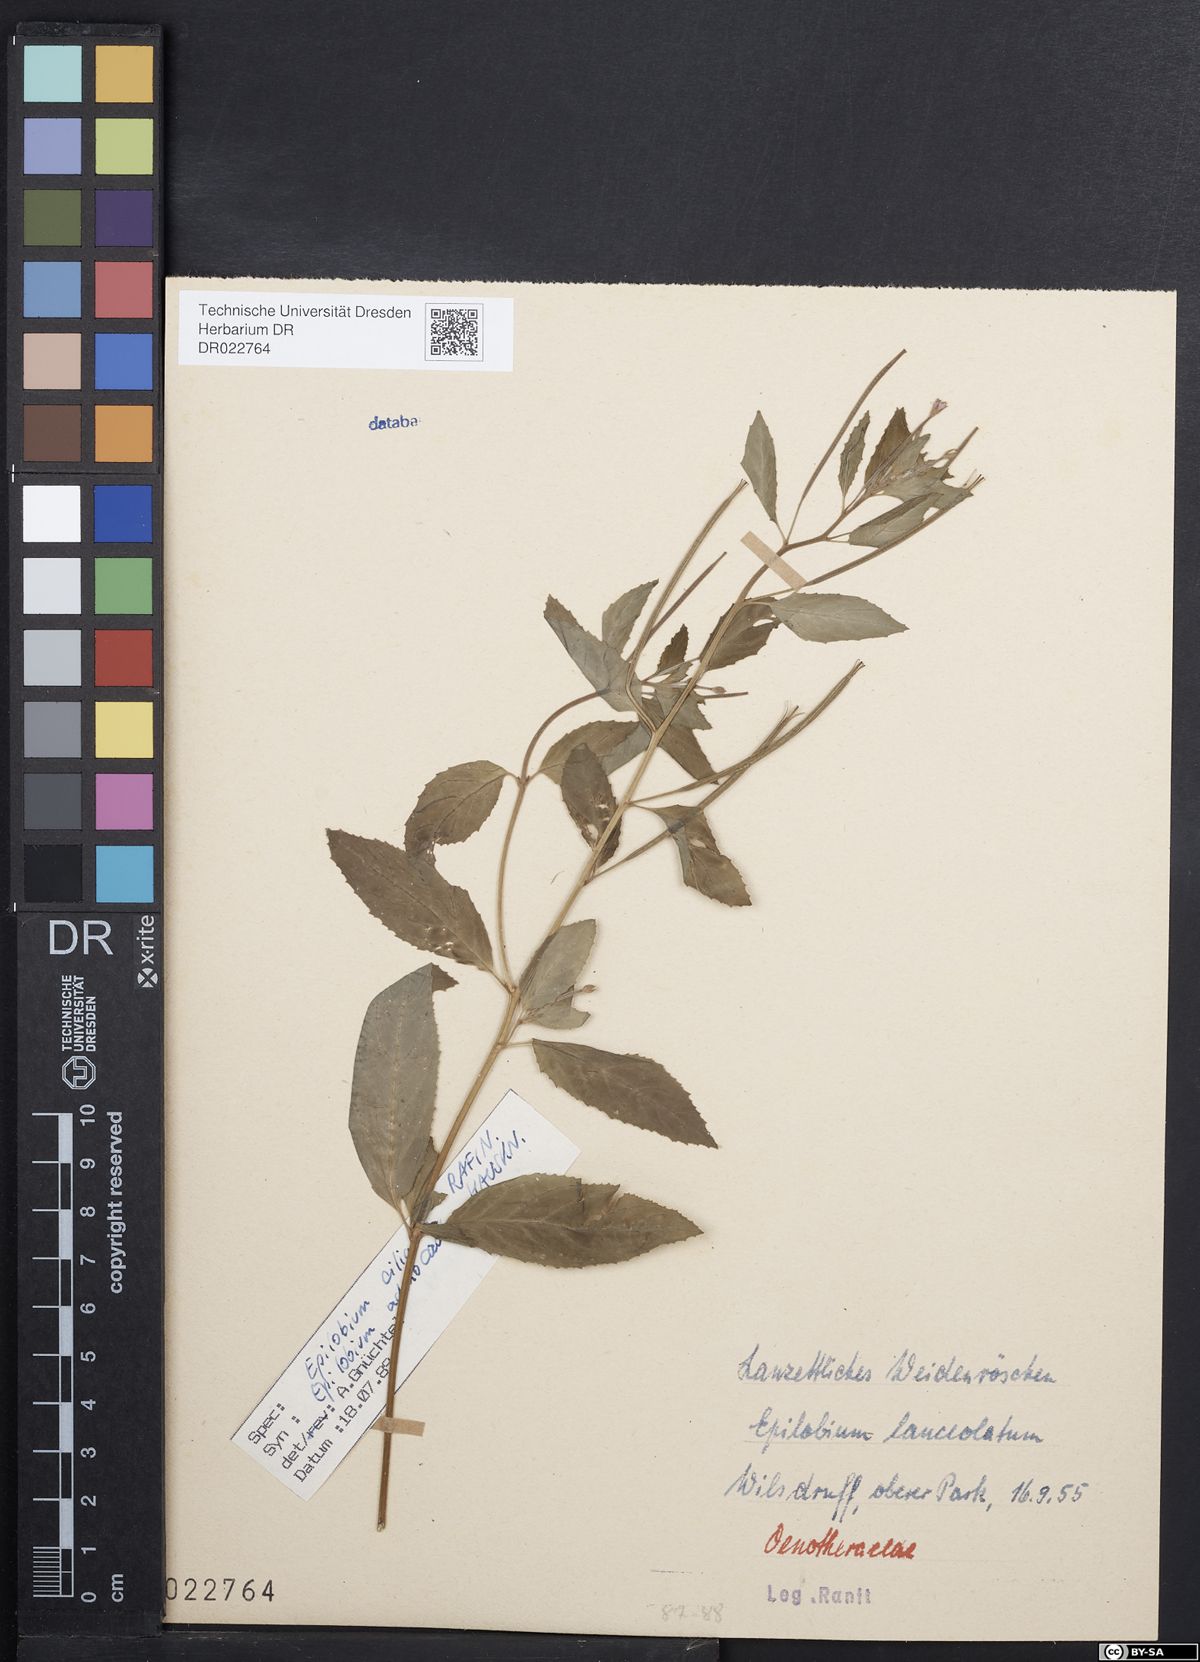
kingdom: Plantae
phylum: Tracheophyta
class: Magnoliopsida
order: Myrtales
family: Onagraceae
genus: Epilobium
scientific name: Epilobium ciliatum
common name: American willowherb
